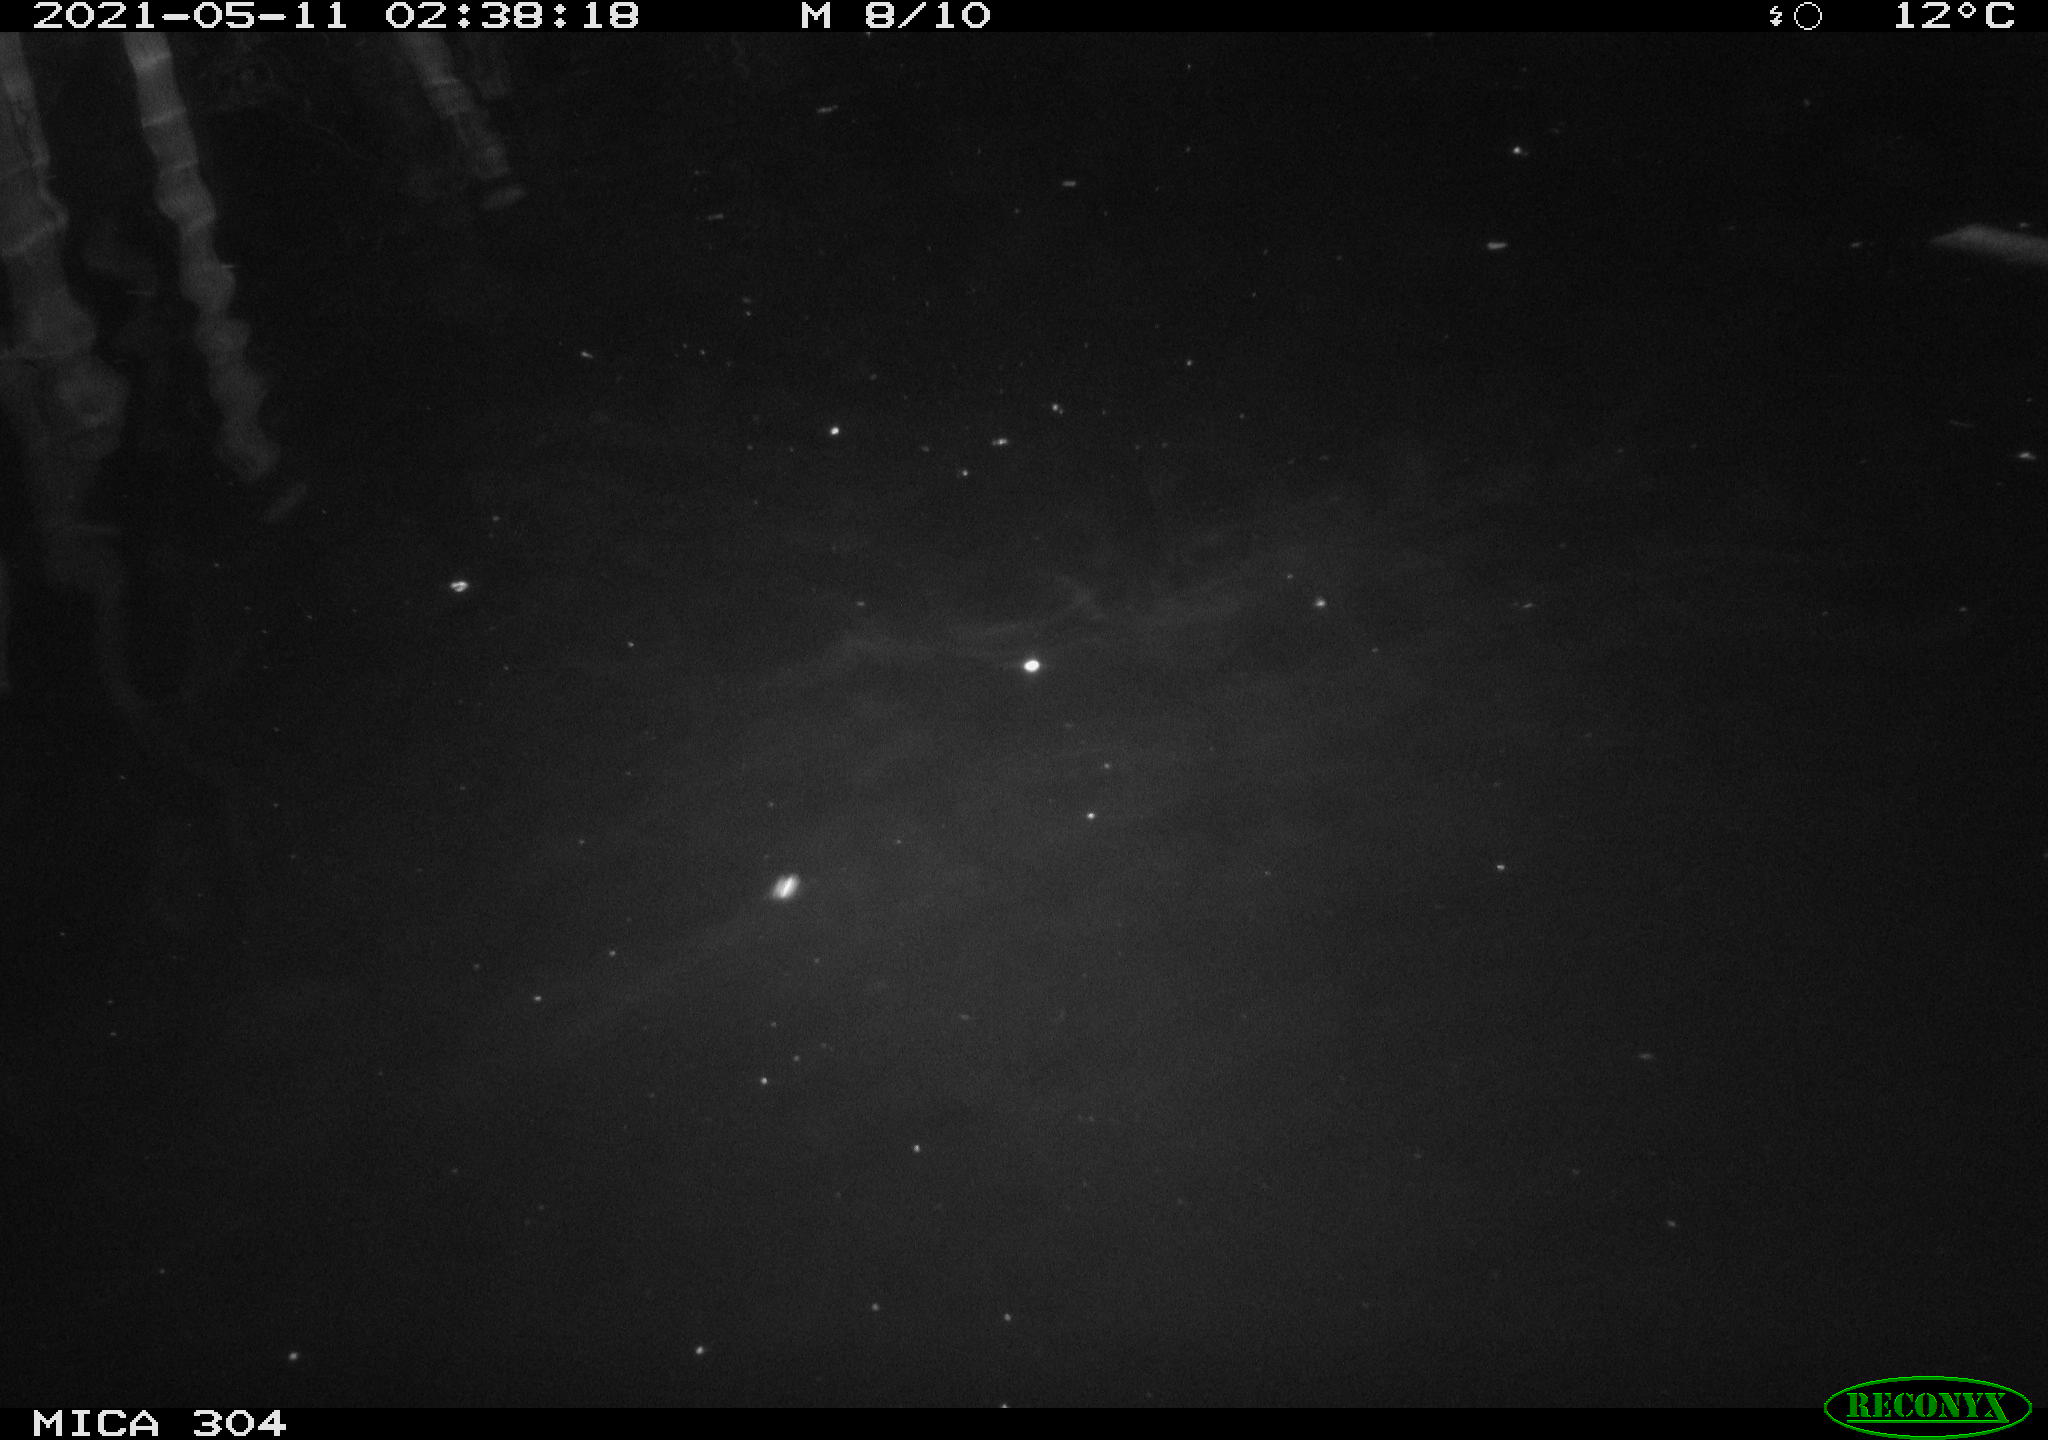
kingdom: Animalia
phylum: Chordata
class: Mammalia
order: Rodentia
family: Cricetidae
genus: Ondatra
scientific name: Ondatra zibethicus
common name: Muskrat
